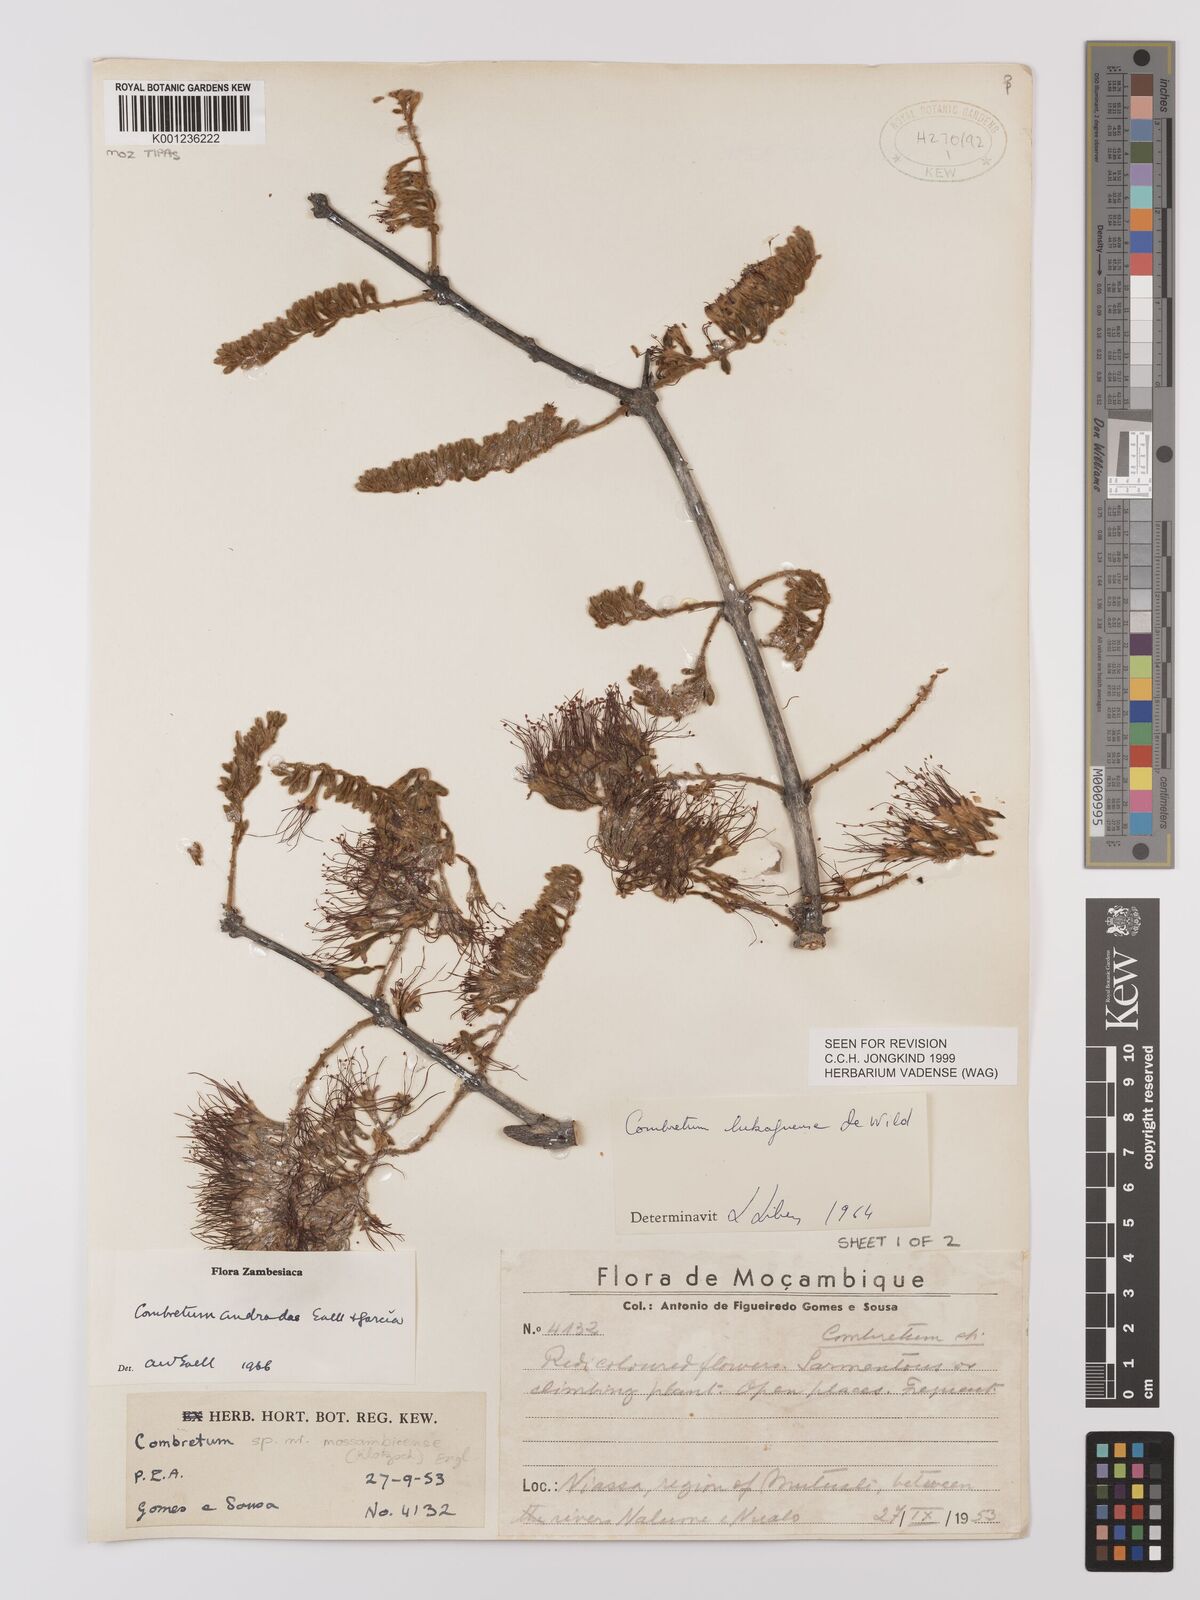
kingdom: Plantae
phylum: Tracheophyta
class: Magnoliopsida
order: Myrtales
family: Combretaceae
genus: Combretum
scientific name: Combretum andradae
